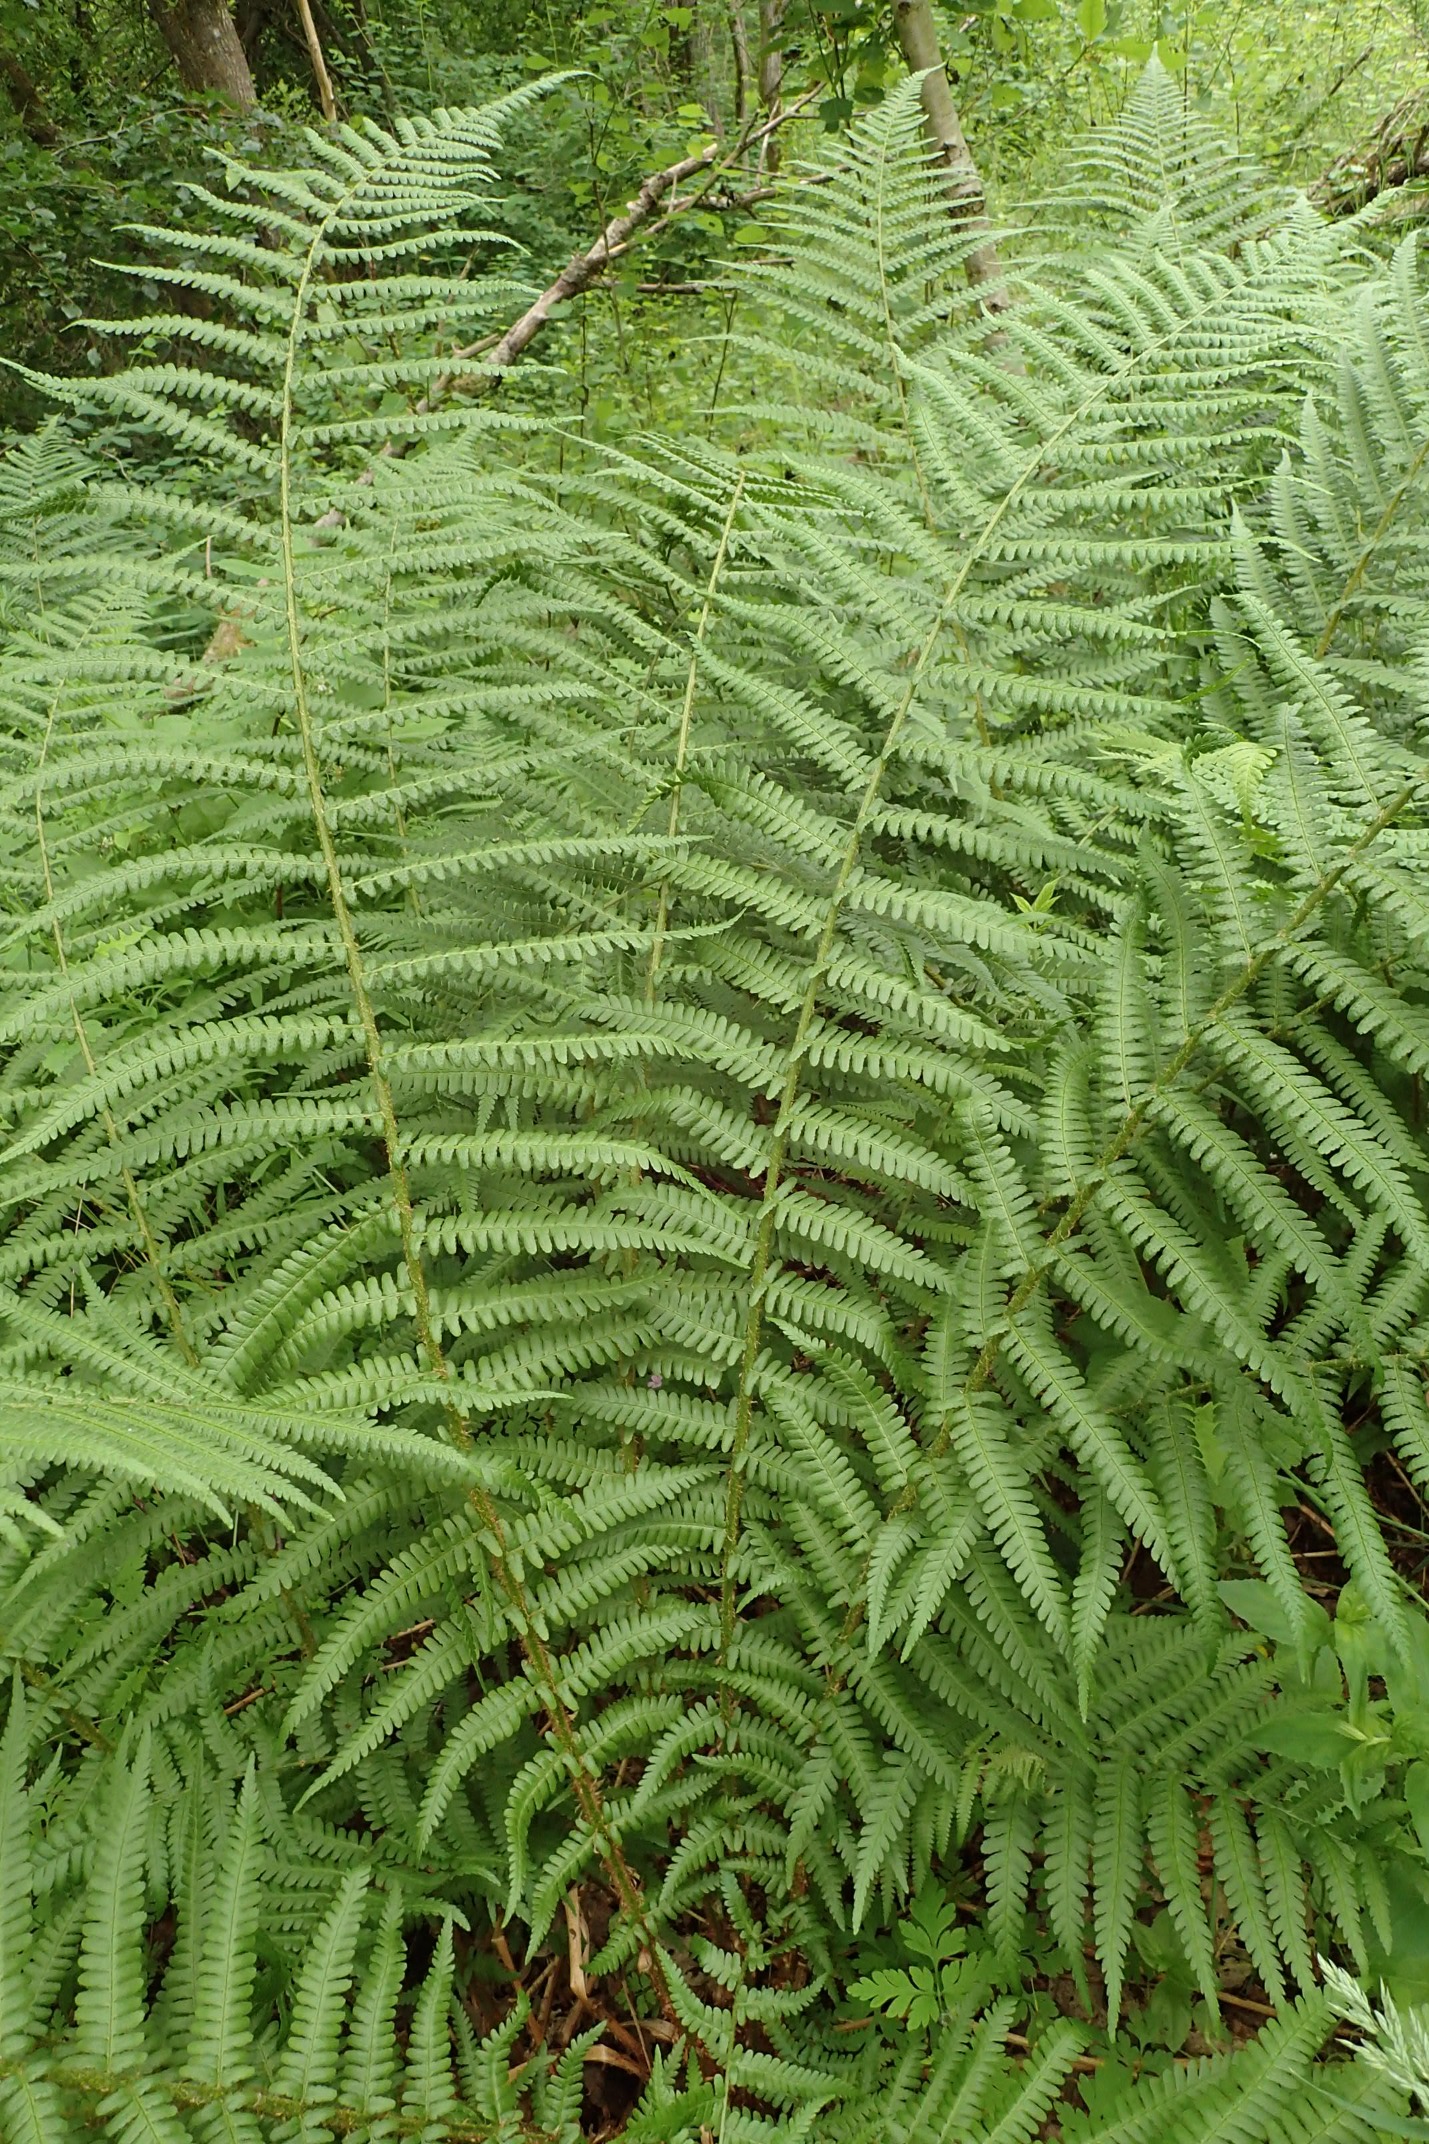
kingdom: Plantae
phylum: Tracheophyta
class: Polypodiopsida
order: Polypodiales
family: Dryopteridaceae
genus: Dryopteris
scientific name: Dryopteris filix-mas
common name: Almindelig mangeløv
